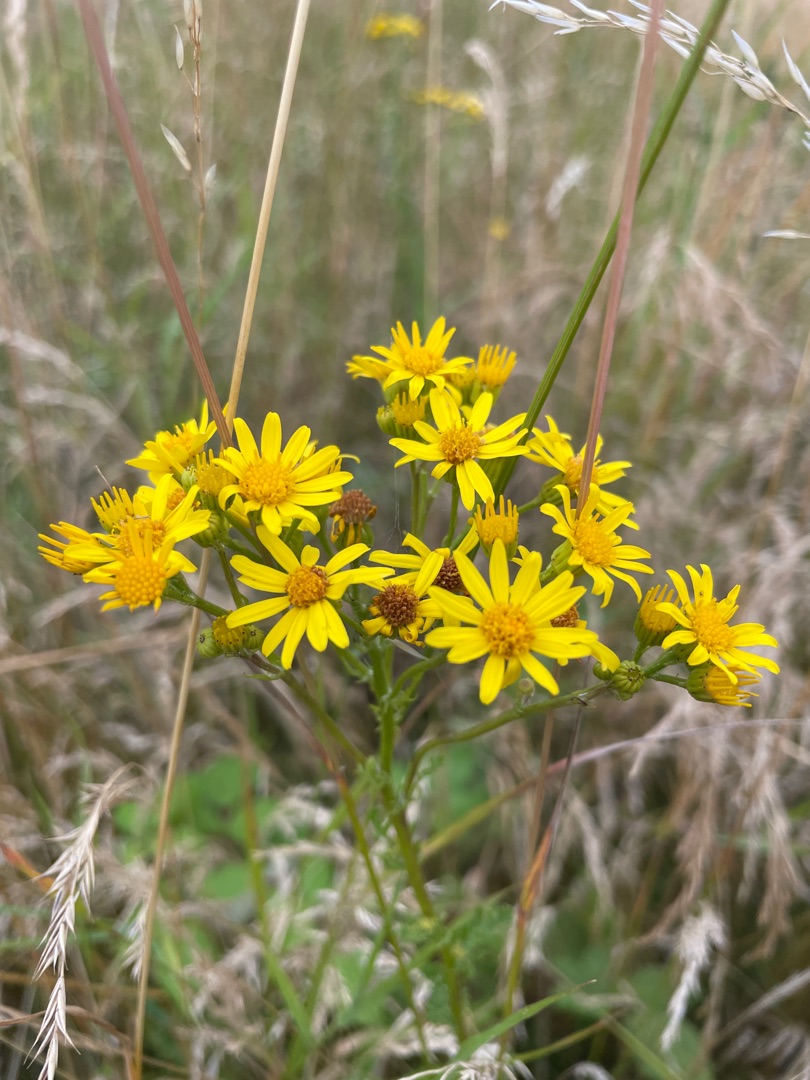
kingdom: Plantae
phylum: Tracheophyta
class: Magnoliopsida
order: Asterales
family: Asteraceae
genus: Jacobaea
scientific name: Jacobaea vulgaris
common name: Eng-brandbæger
